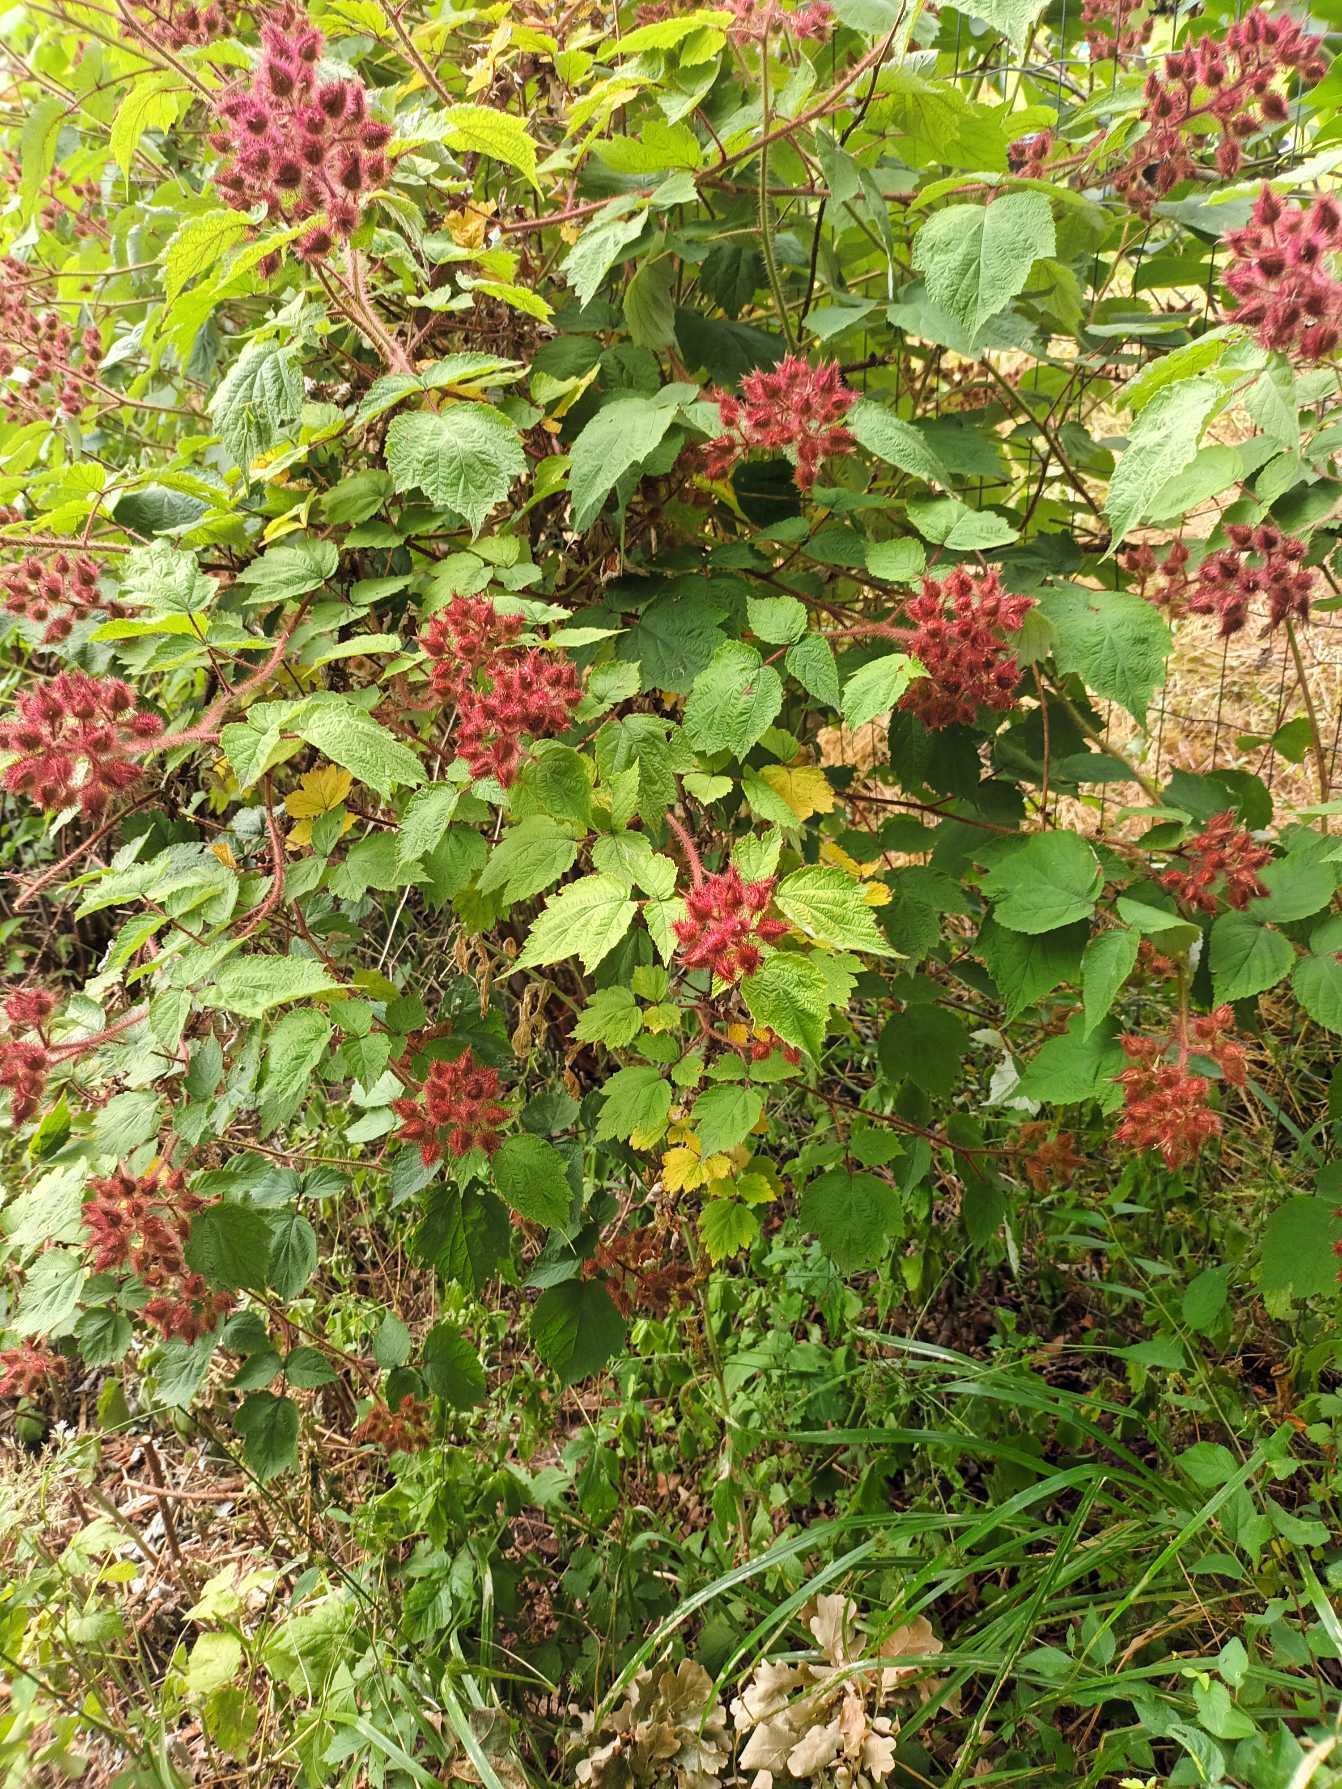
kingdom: Plantae
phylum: Tracheophyta
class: Magnoliopsida
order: Rosales
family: Rosaceae
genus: Rubus
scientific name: Rubus phoenicolasius
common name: Vin-brombær
